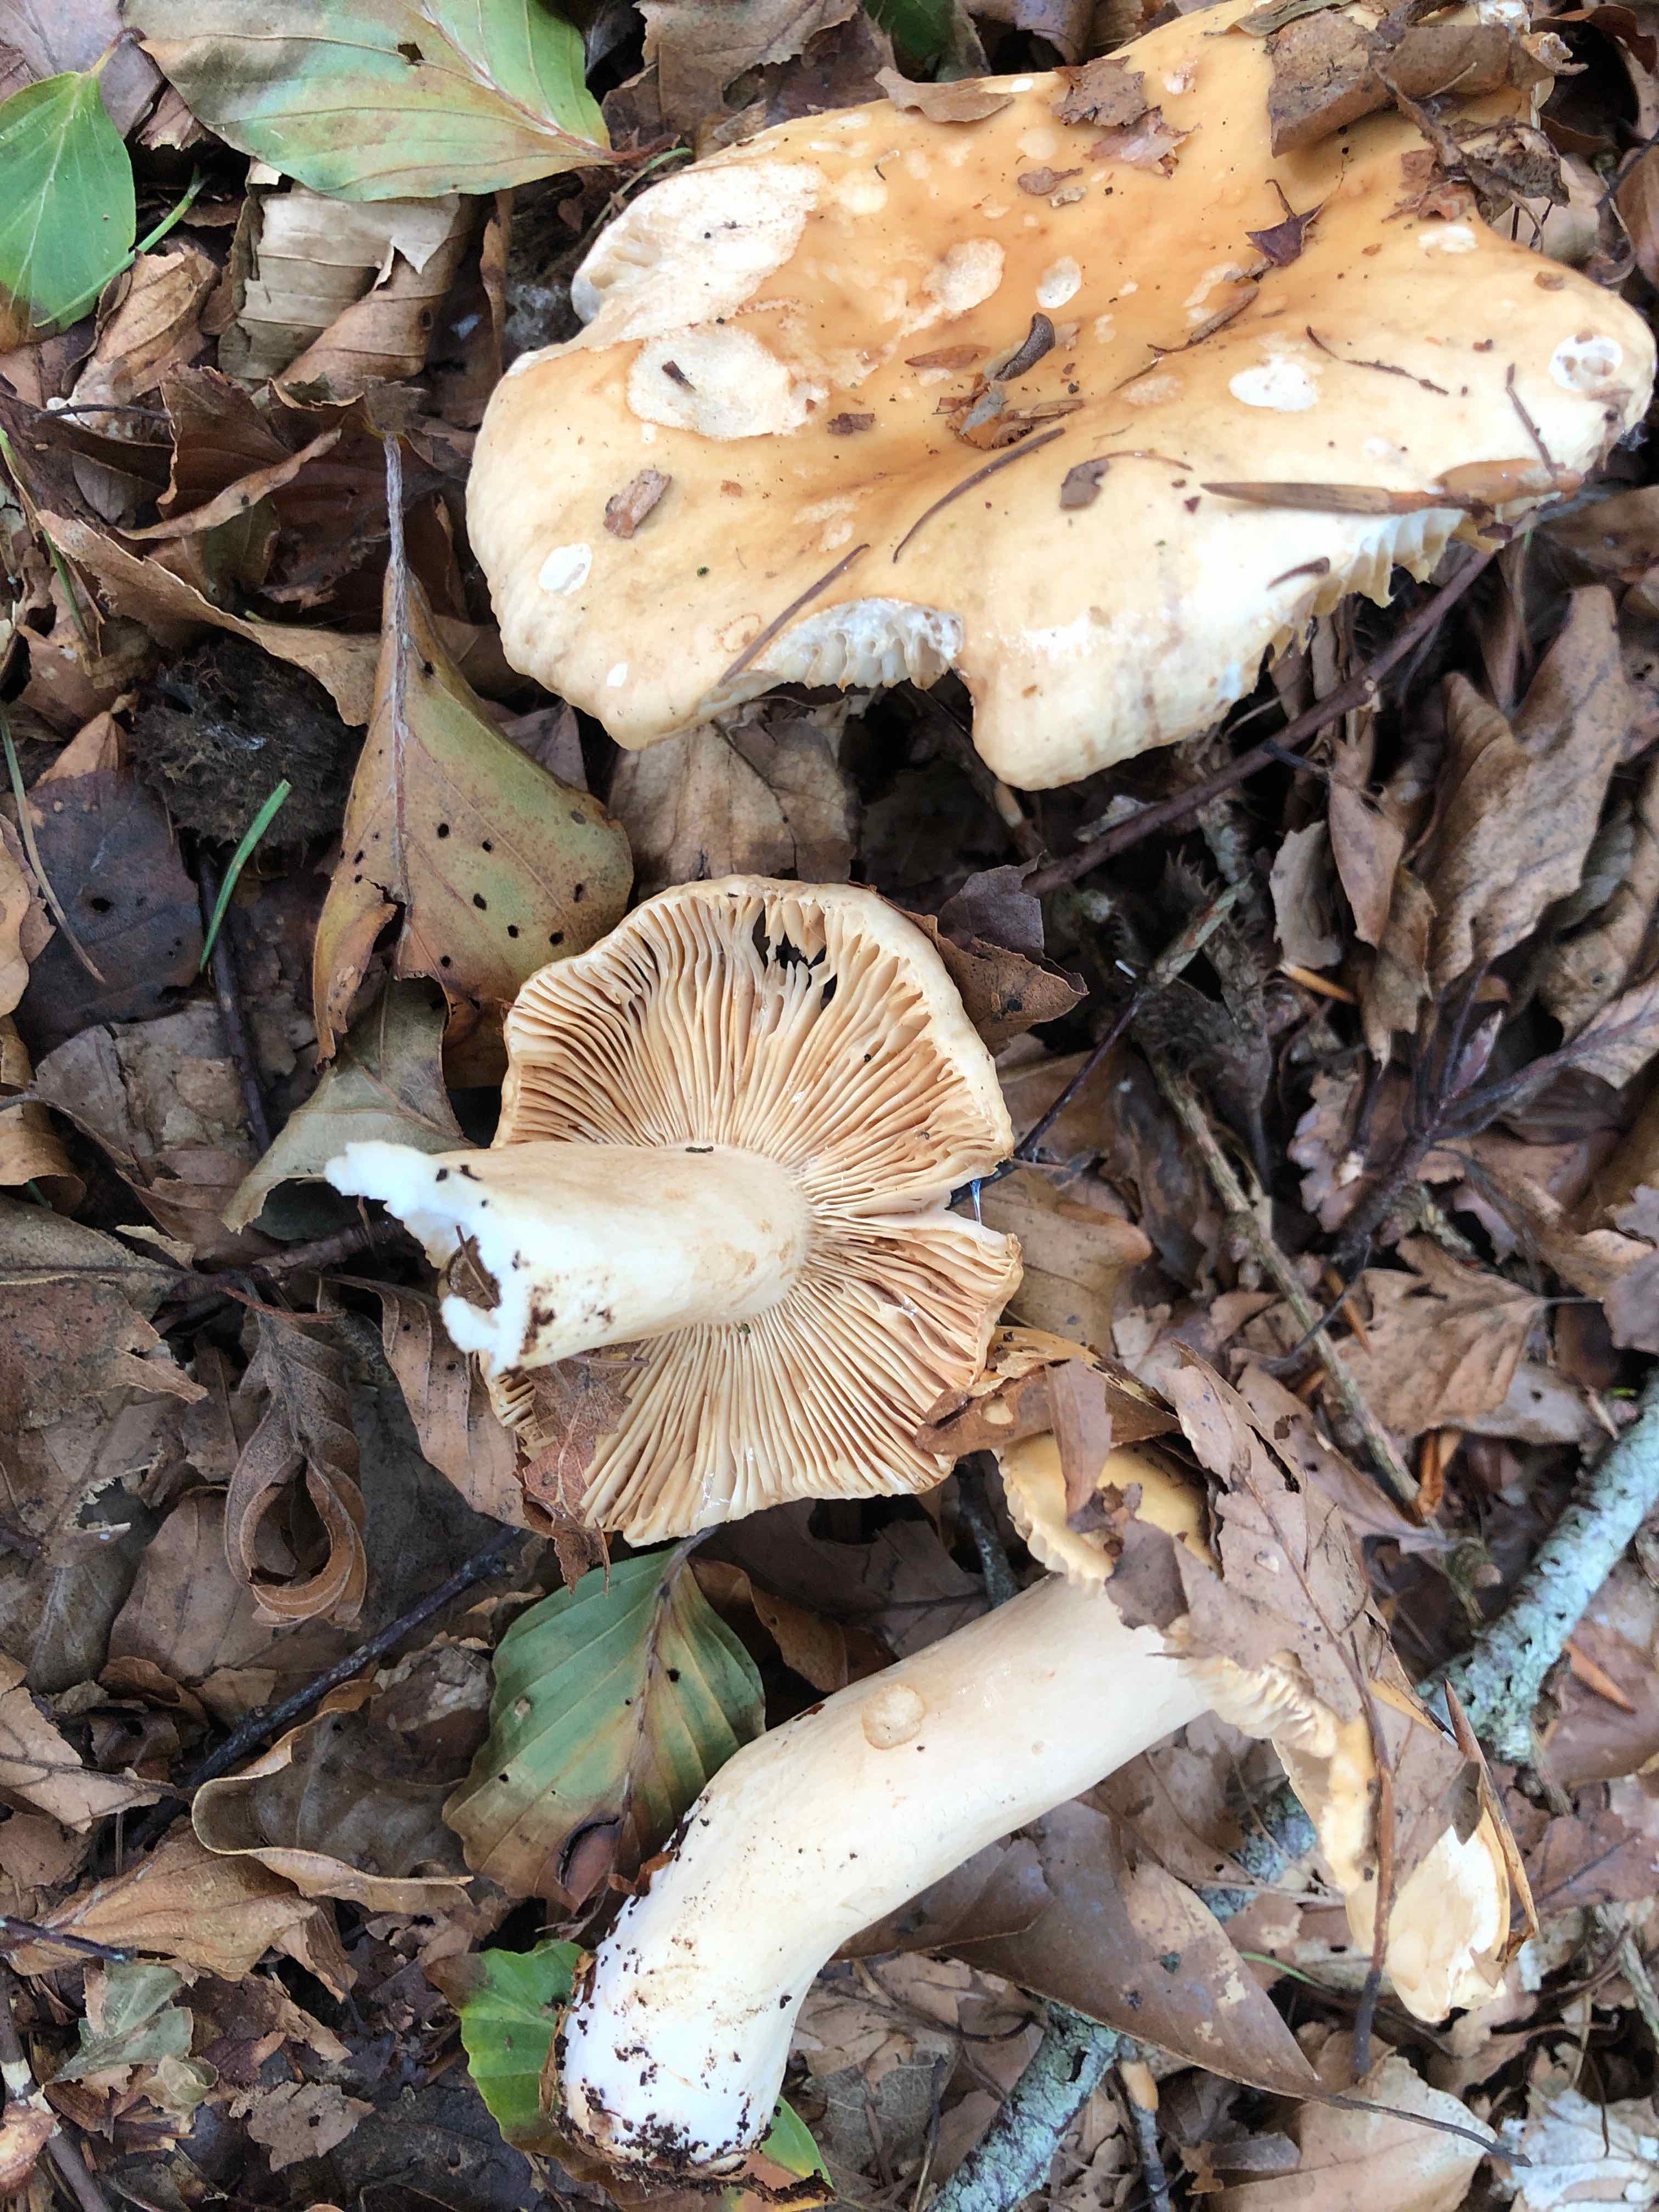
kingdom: Fungi
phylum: Basidiomycota
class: Agaricomycetes
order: Russulales
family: Russulaceae
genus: Russula
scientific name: Russula fellea
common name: galde-skørhat
